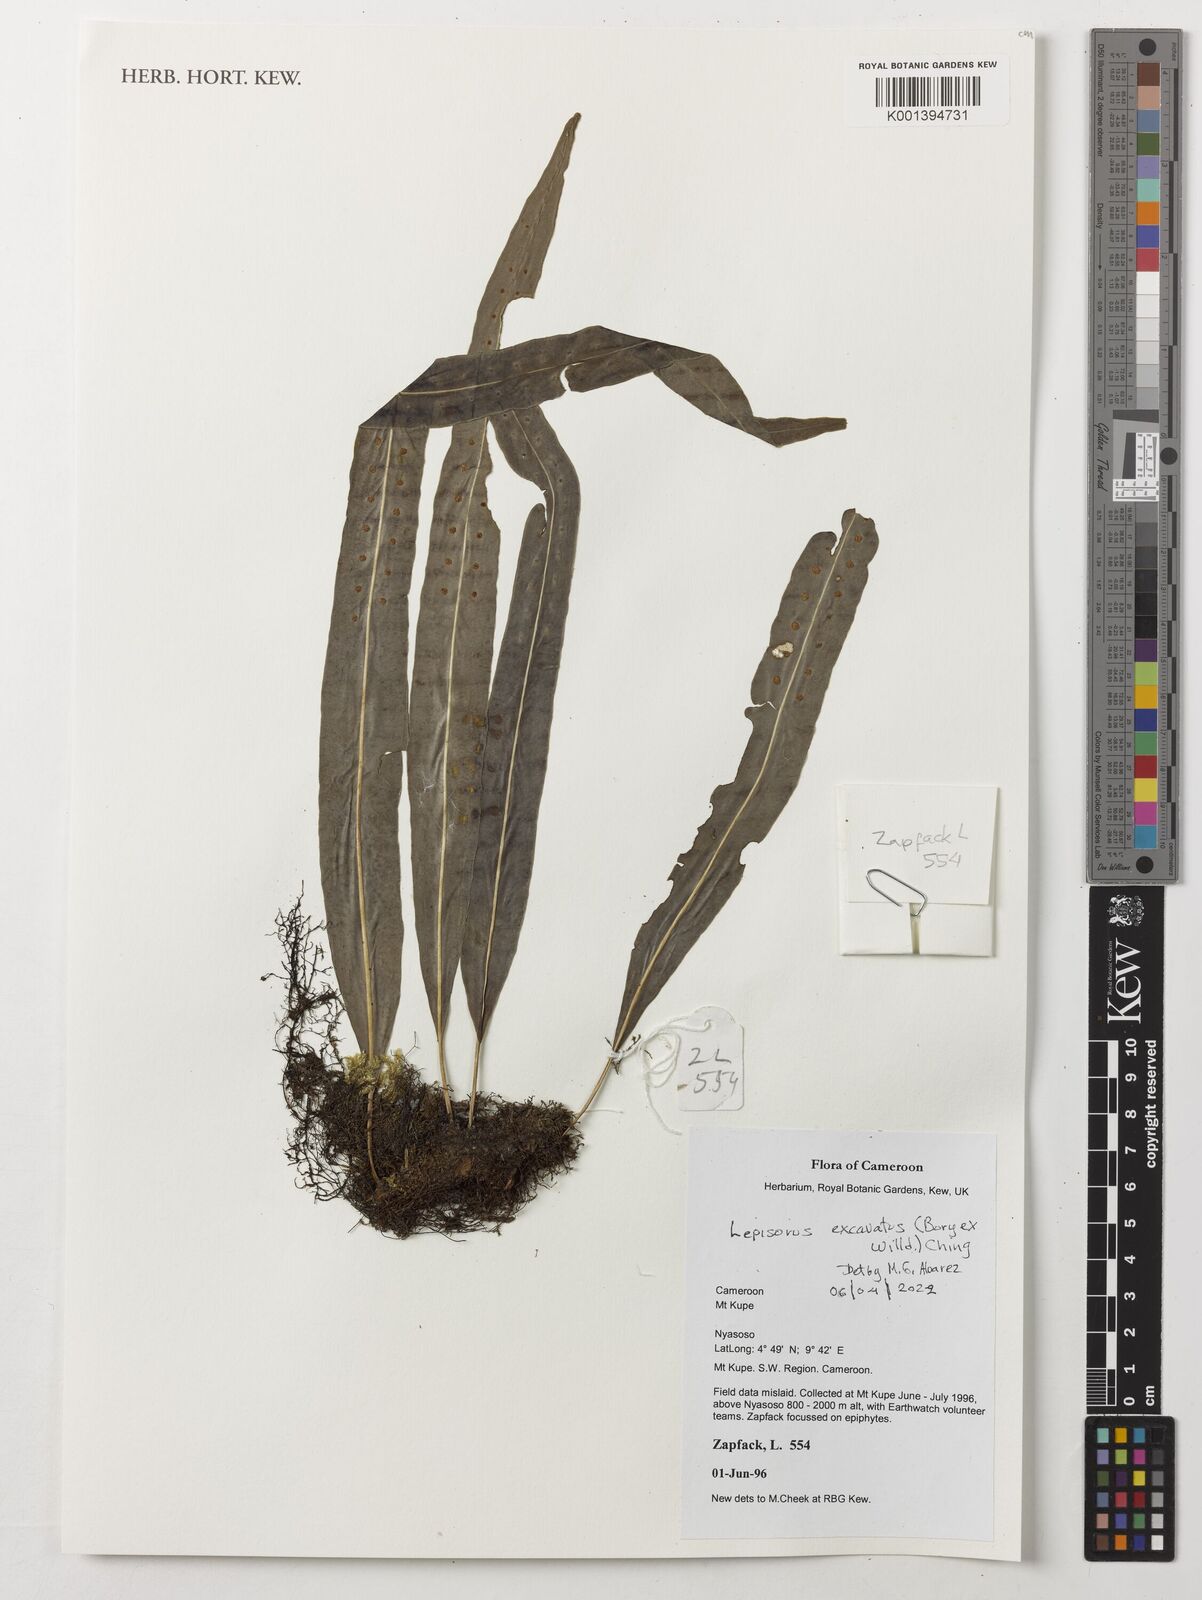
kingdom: Plantae
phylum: Tracheophyta
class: Polypodiopsida
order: Polypodiales
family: Polypodiaceae
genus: Lepisorus
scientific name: Lepisorus excavatus
